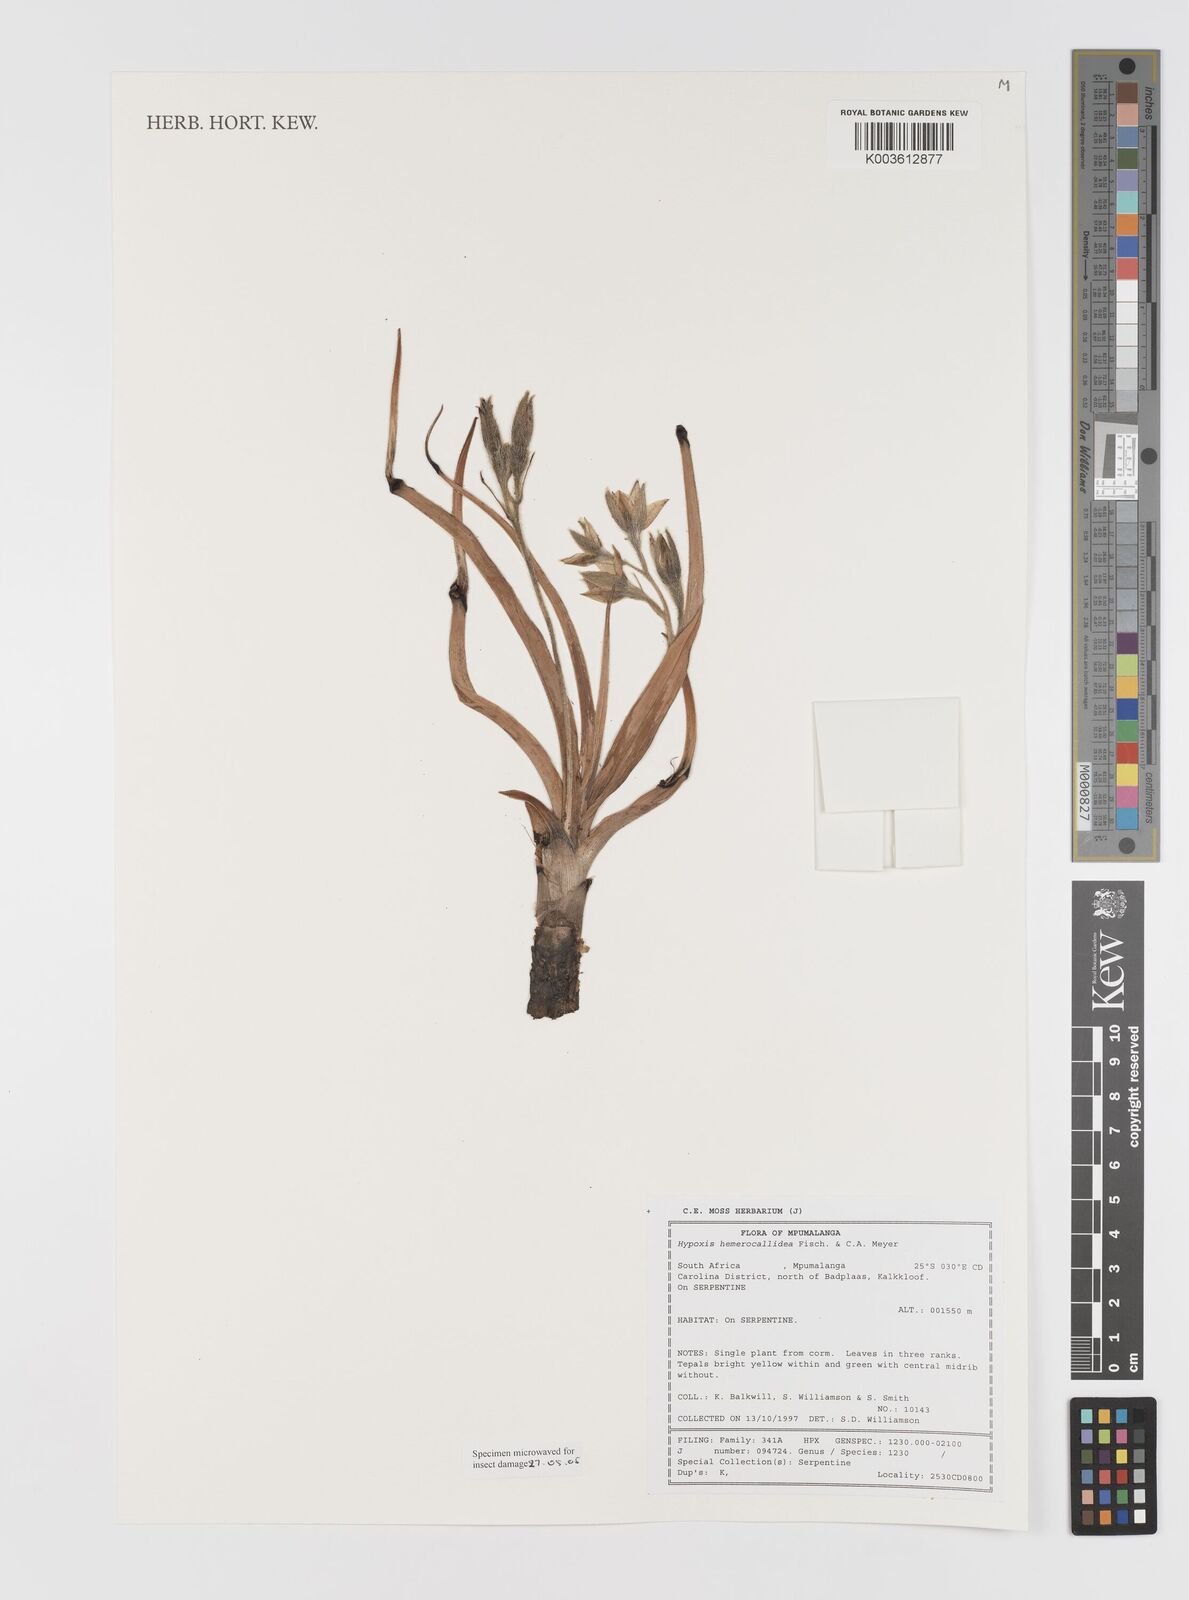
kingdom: Plantae
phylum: Tracheophyta
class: Liliopsida
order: Asparagales
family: Hypoxidaceae
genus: Hypoxis
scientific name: Hypoxis hemerocallidea
